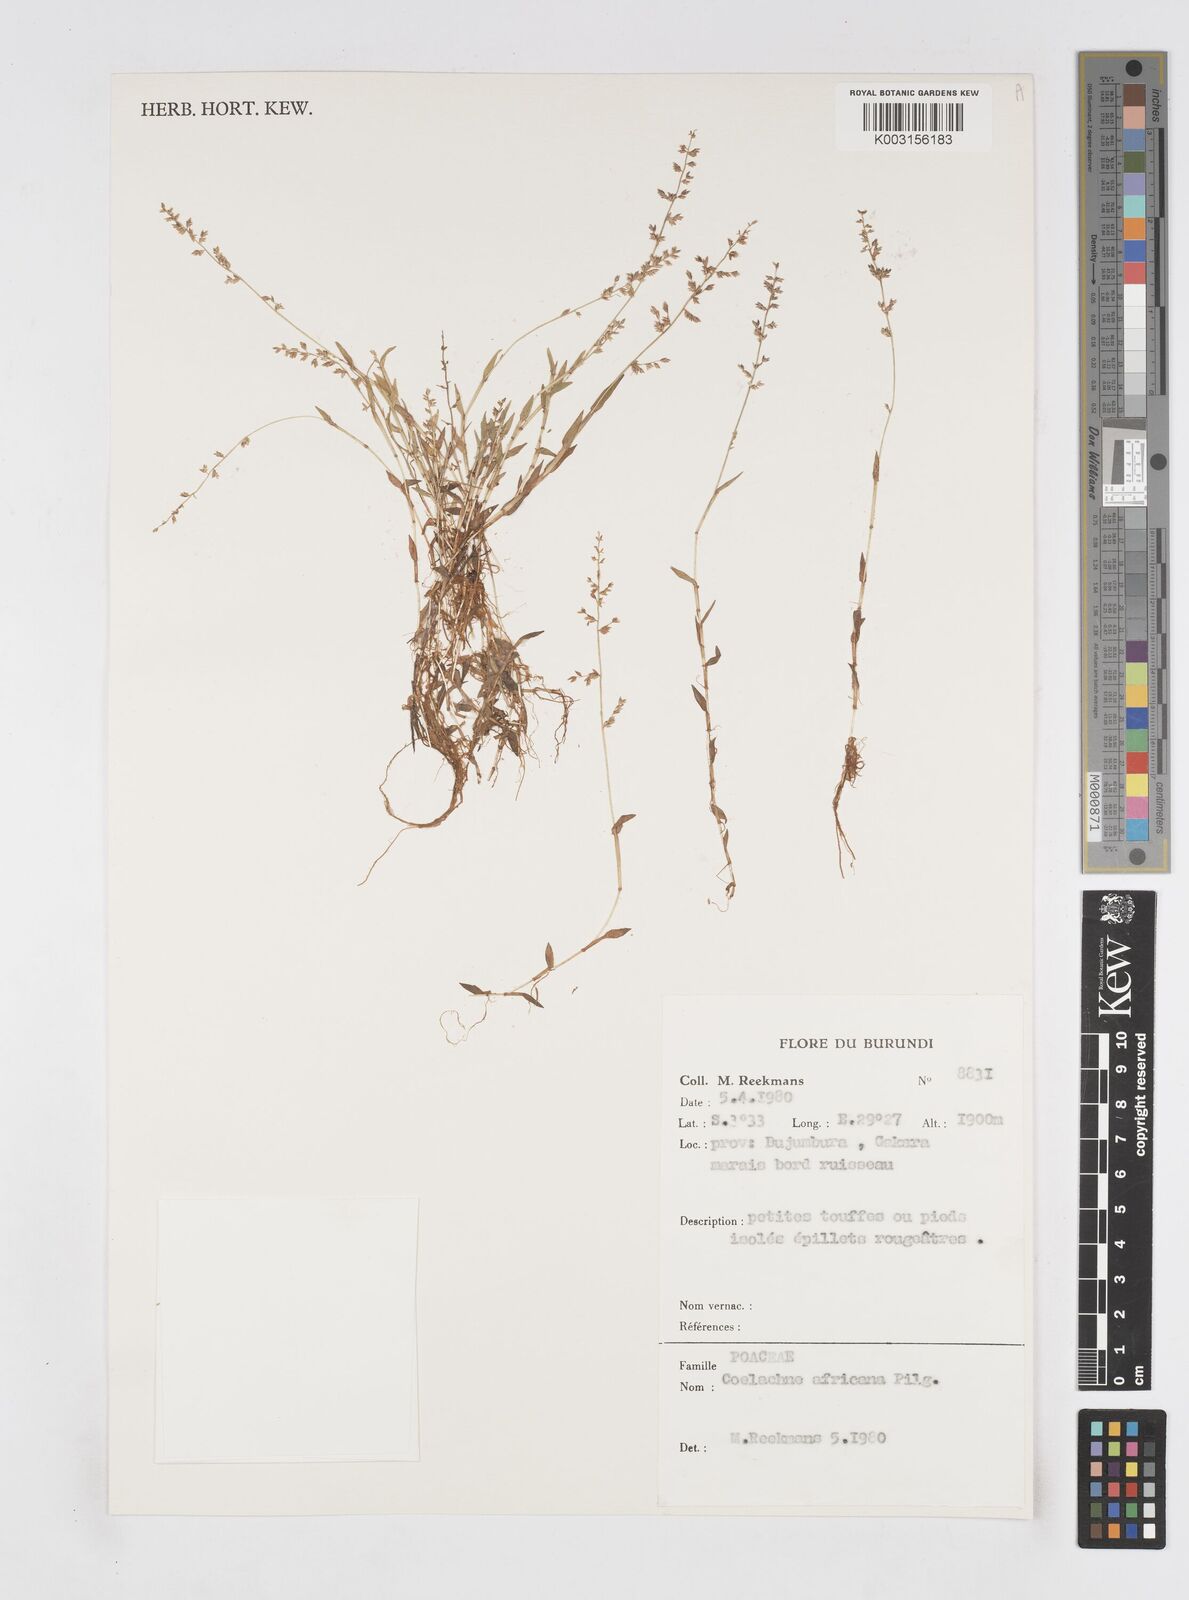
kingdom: Plantae
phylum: Tracheophyta
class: Liliopsida
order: Poales
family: Poaceae
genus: Coelachne
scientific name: Coelachne africana
